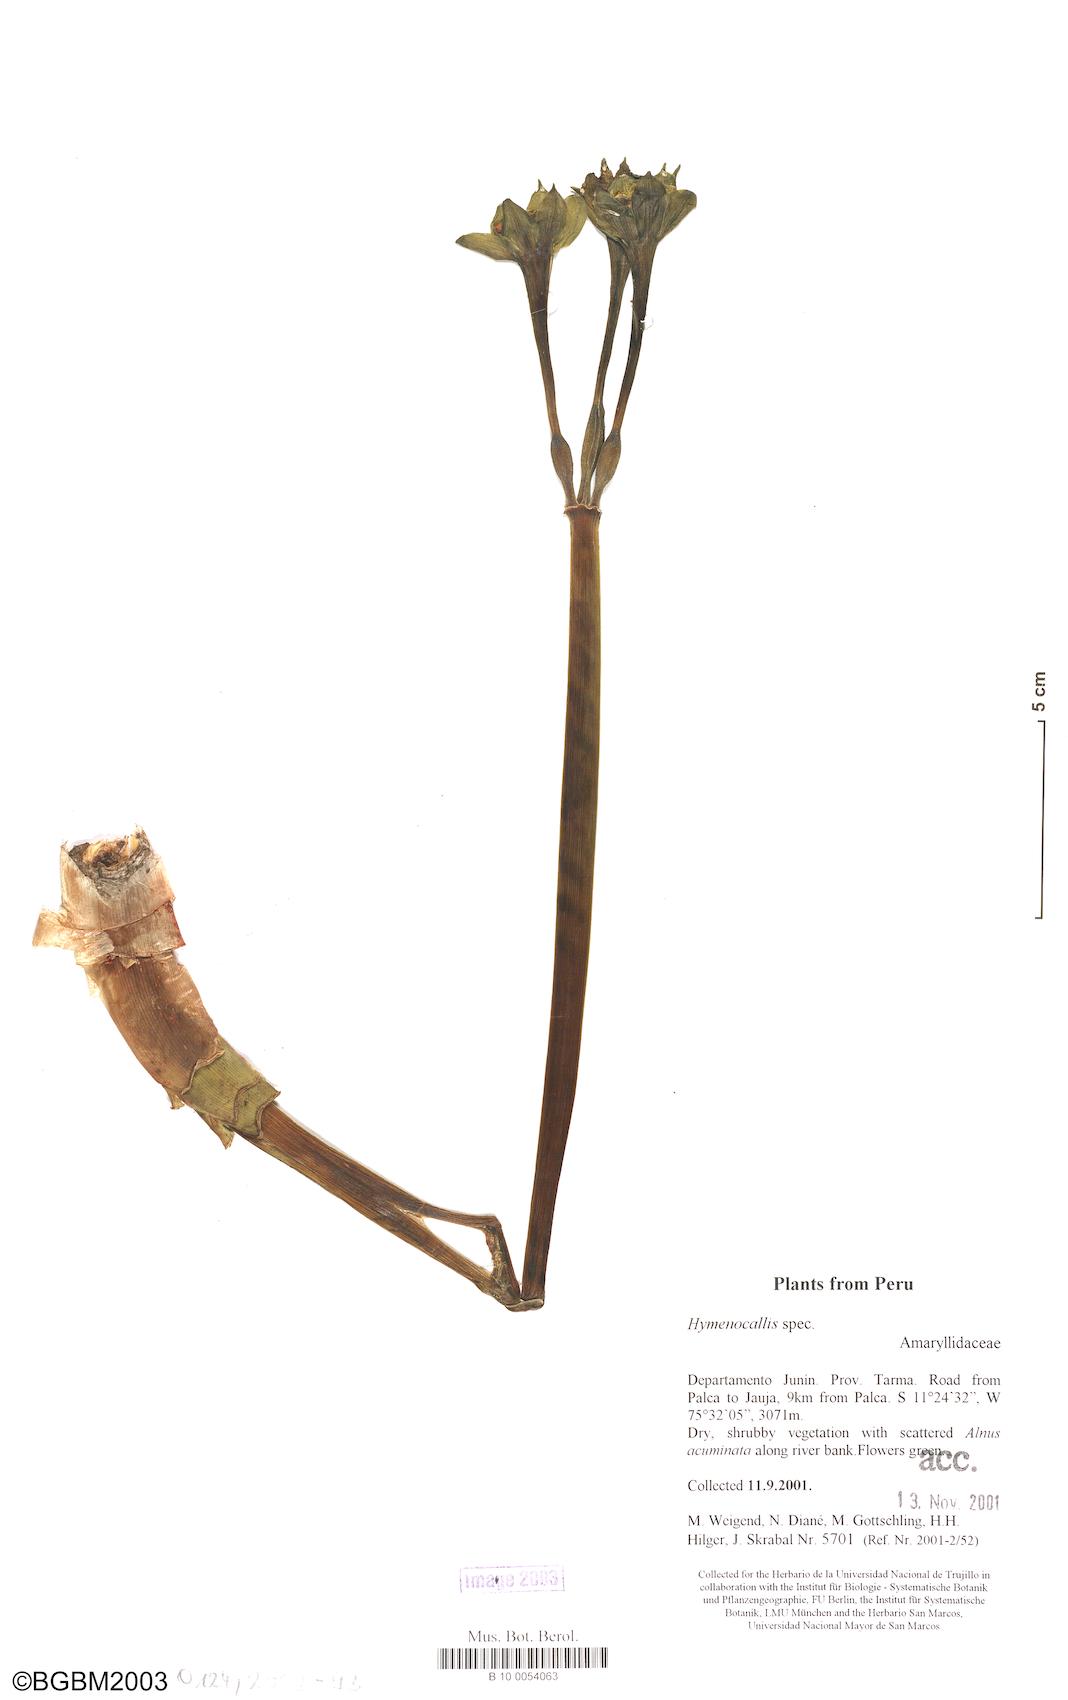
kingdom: Plantae
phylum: Tracheophyta
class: Liliopsida
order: Asparagales
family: Amaryllidaceae
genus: Paramongaia
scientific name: Paramongaia viridiflora
